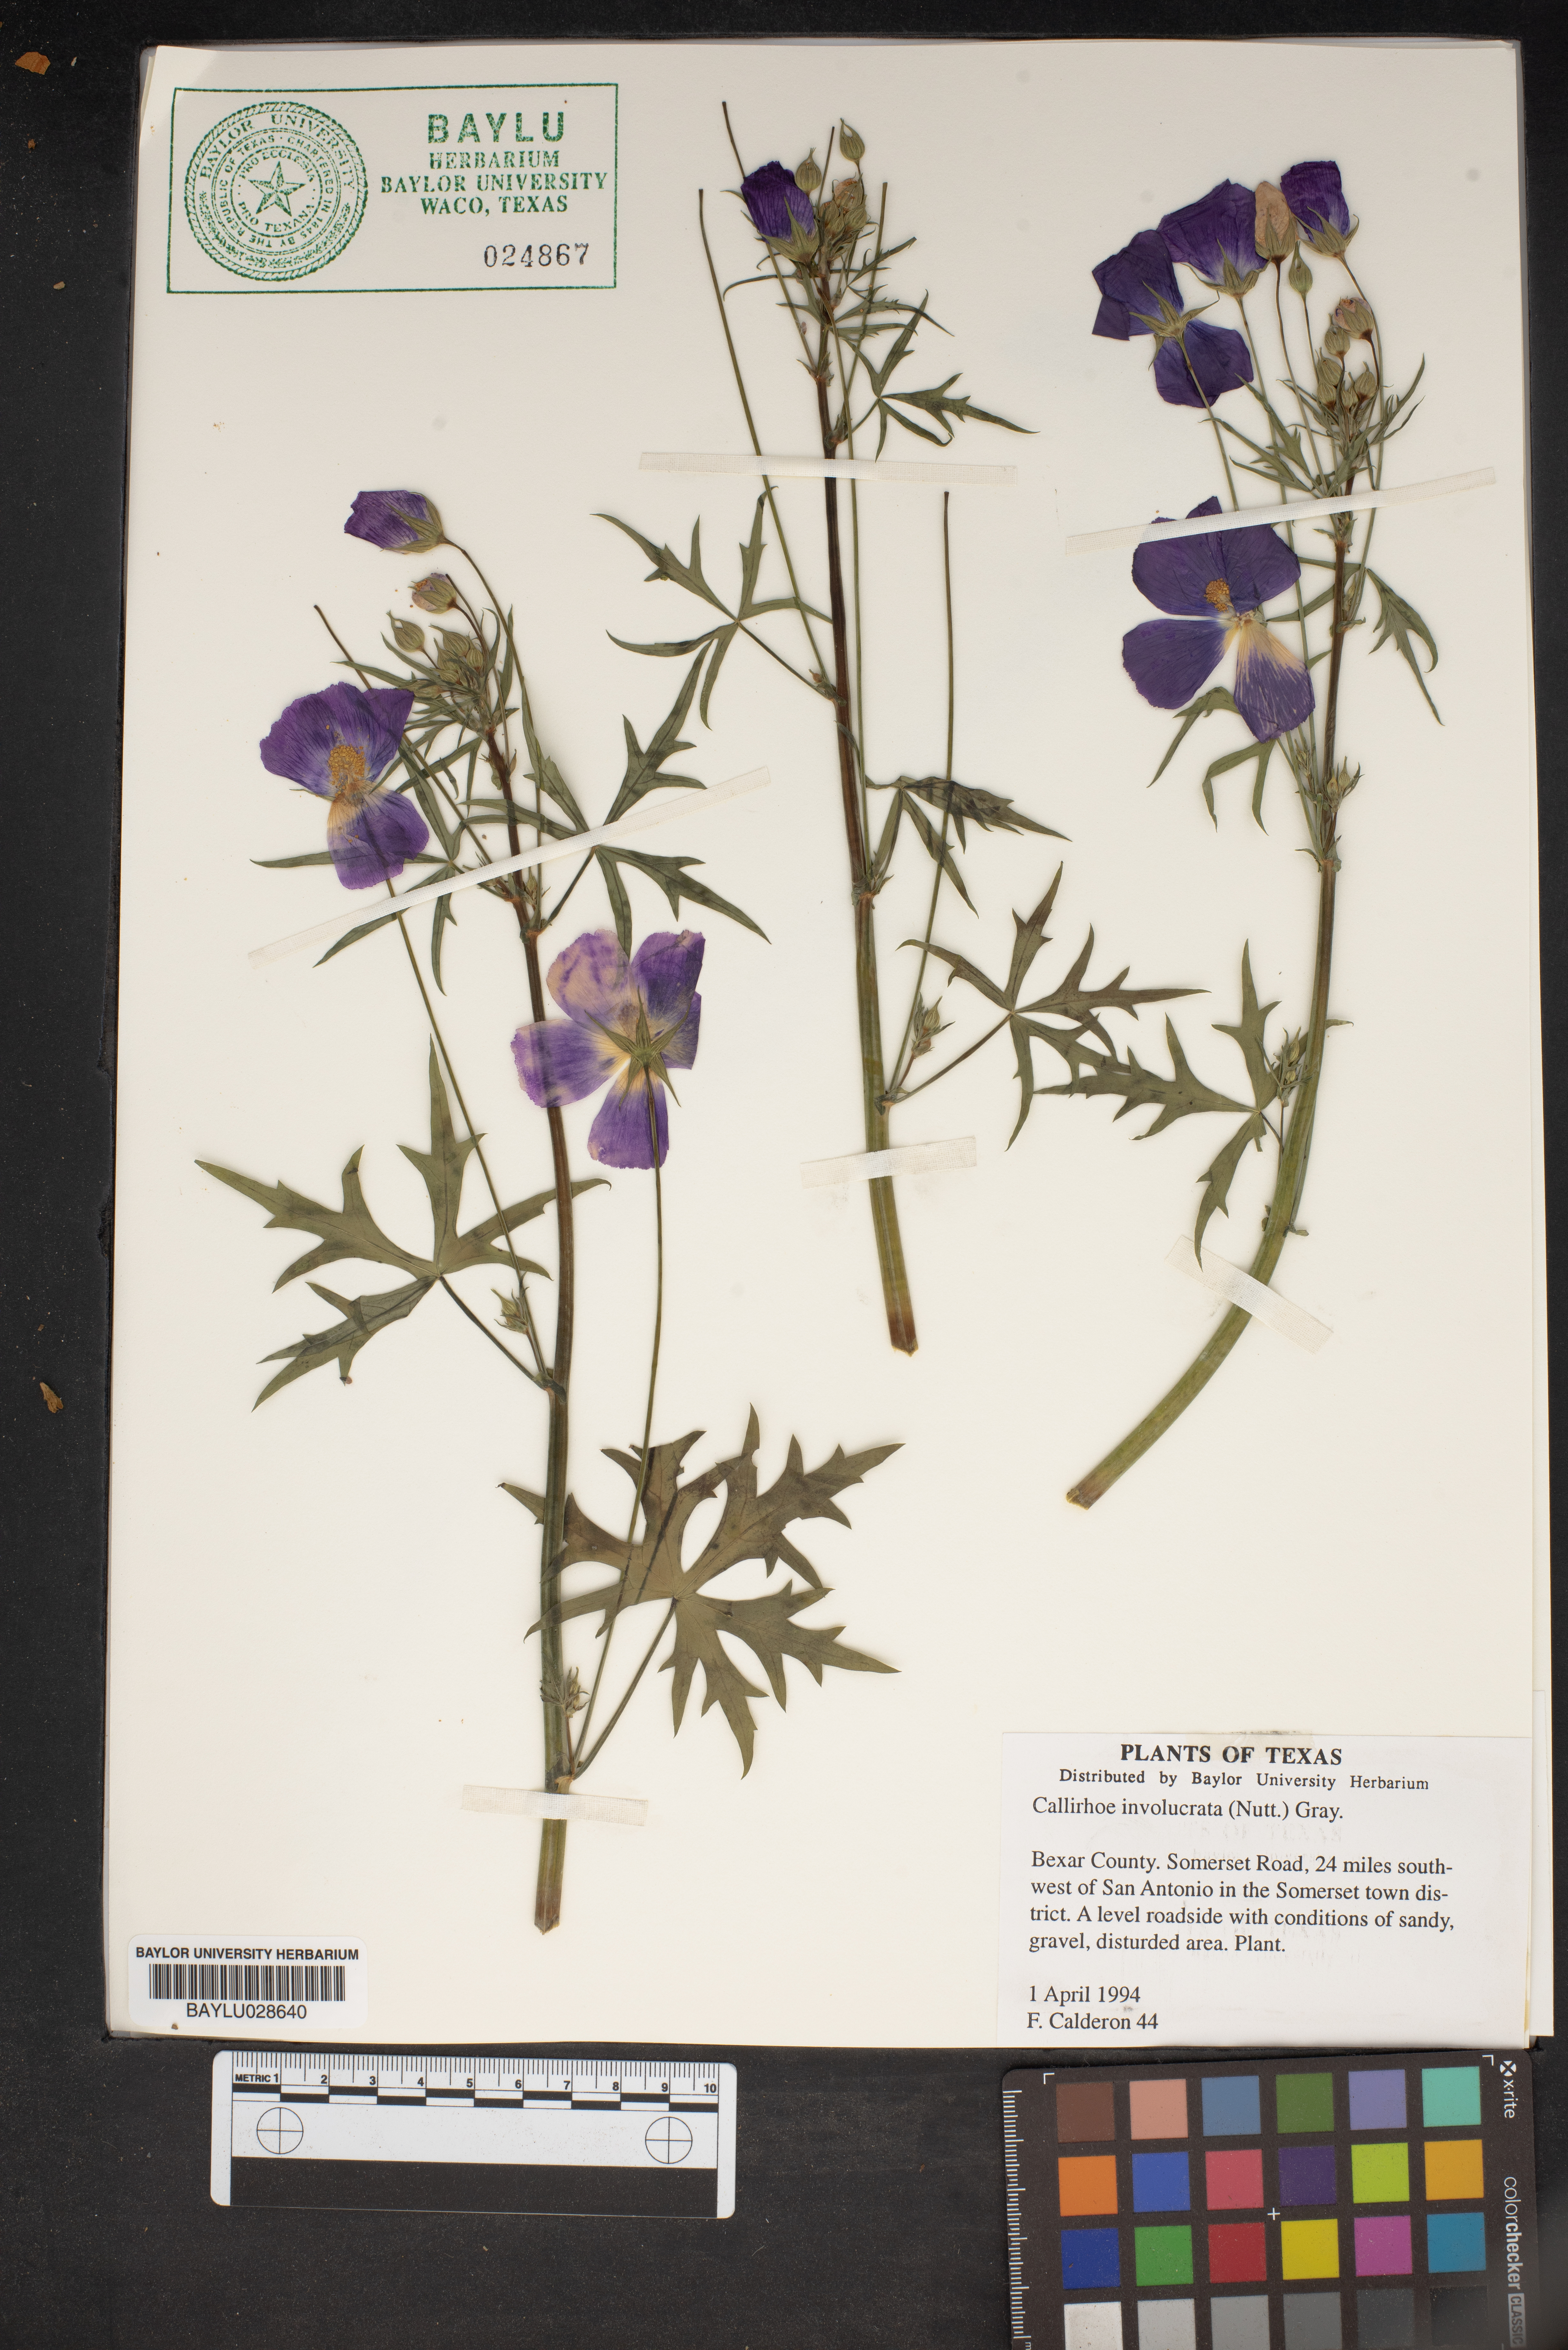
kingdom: Plantae
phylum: Tracheophyta
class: Magnoliopsida
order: Malvales
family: Malvaceae
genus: Callirhoe
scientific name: Callirhoe involucrata
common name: Purple poppy-mallow
